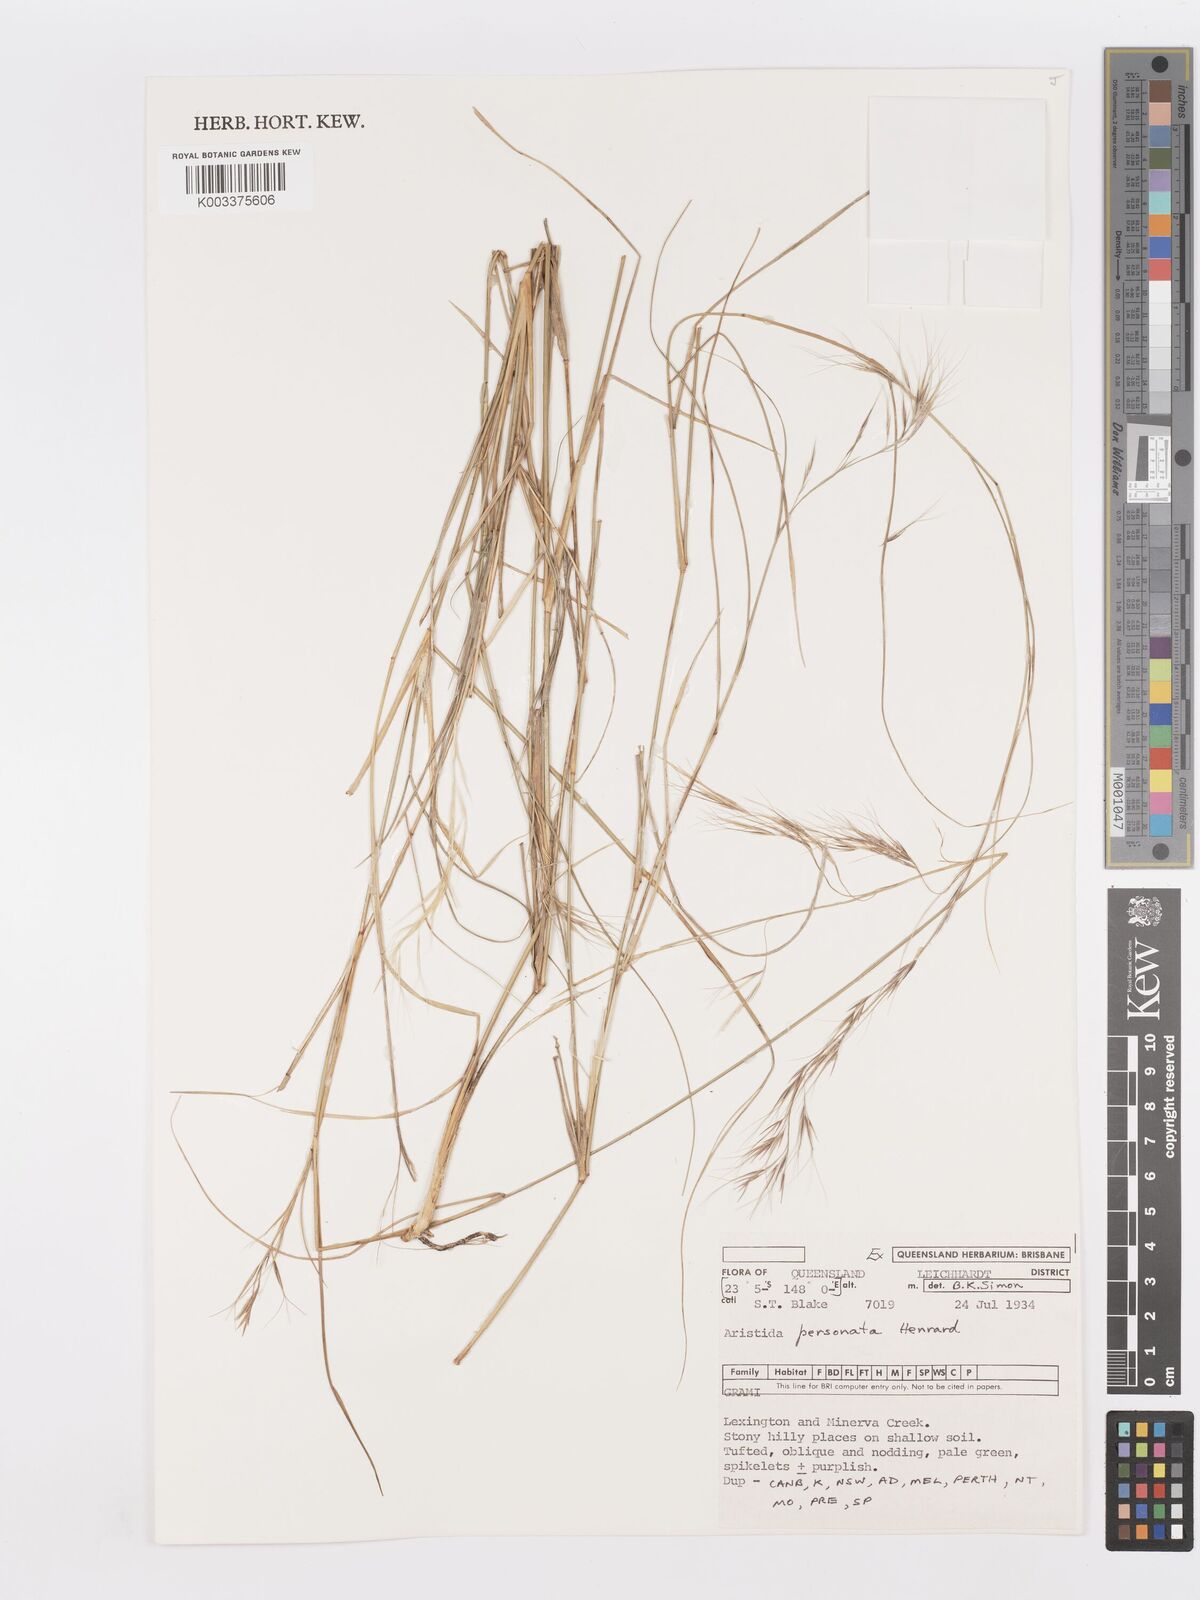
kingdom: Plantae
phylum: Tracheophyta
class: Liliopsida
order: Poales
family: Poaceae
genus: Aristida
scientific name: Aristida personata
